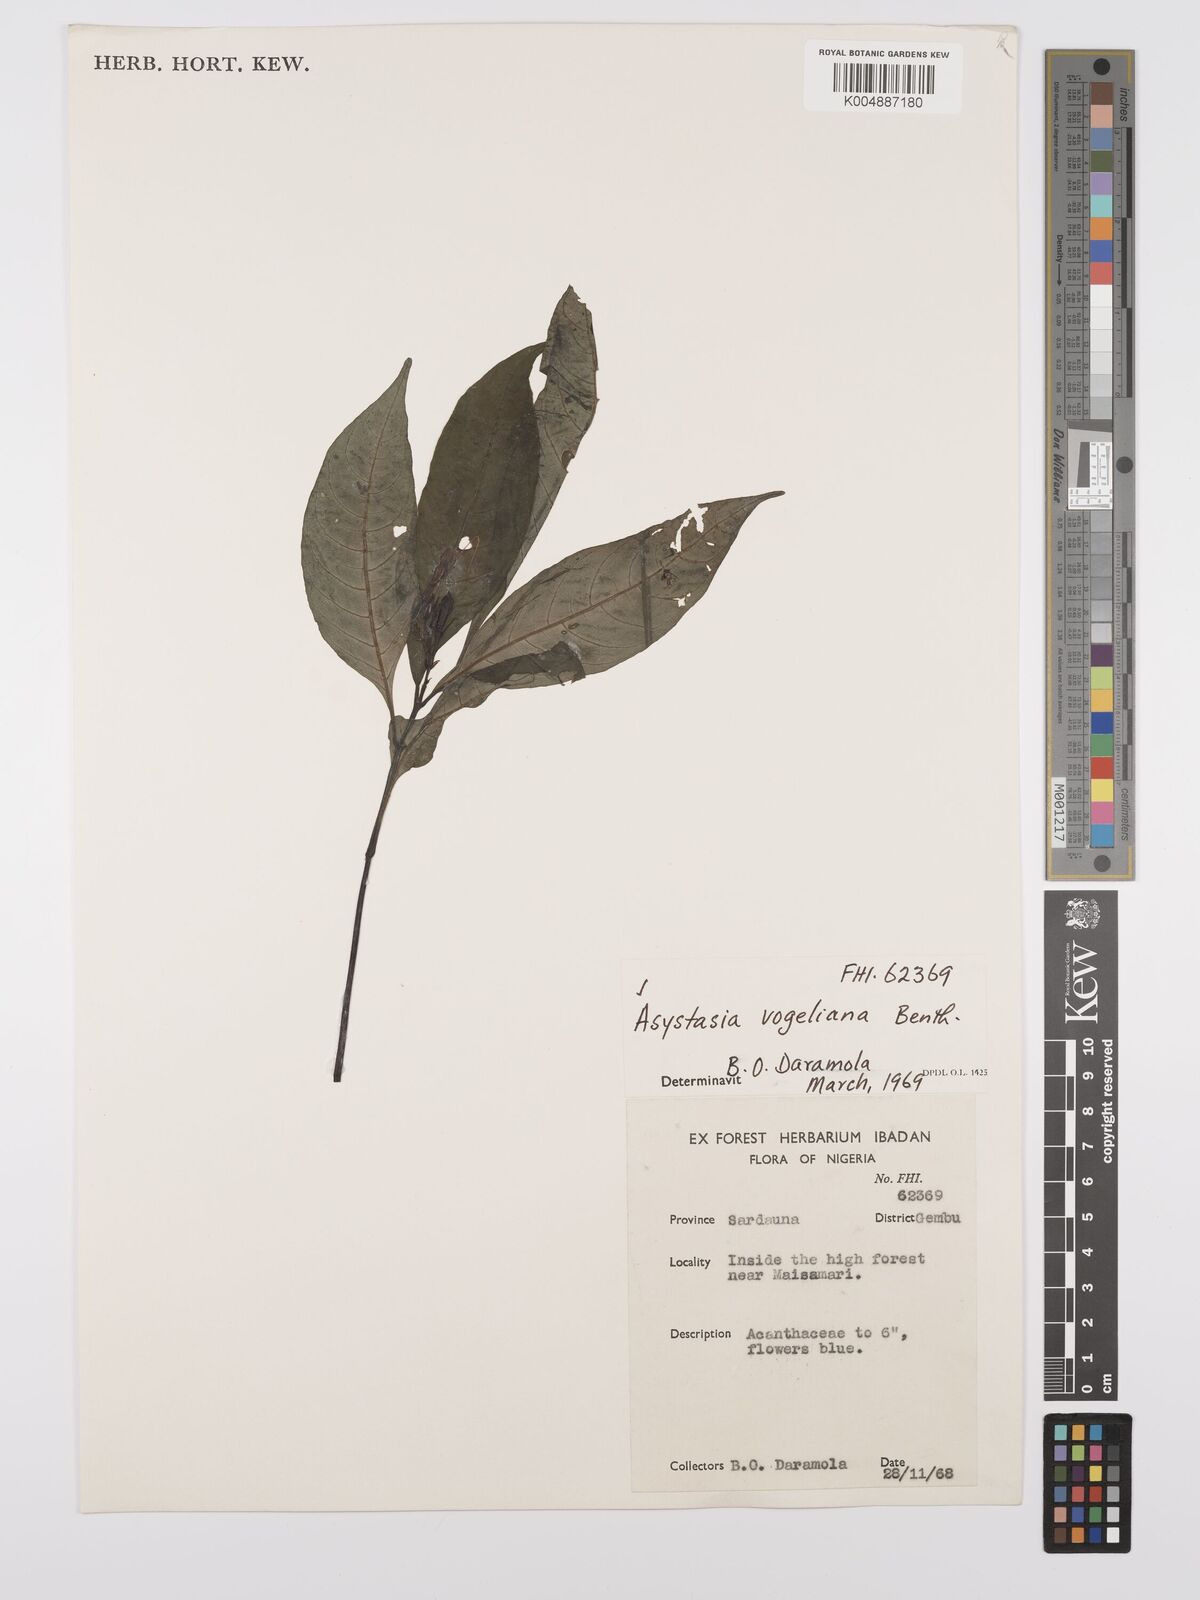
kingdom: Plantae
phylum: Tracheophyta
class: Magnoliopsida
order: Lamiales
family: Acanthaceae
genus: Asystasia
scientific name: Asystasia vogeliana
